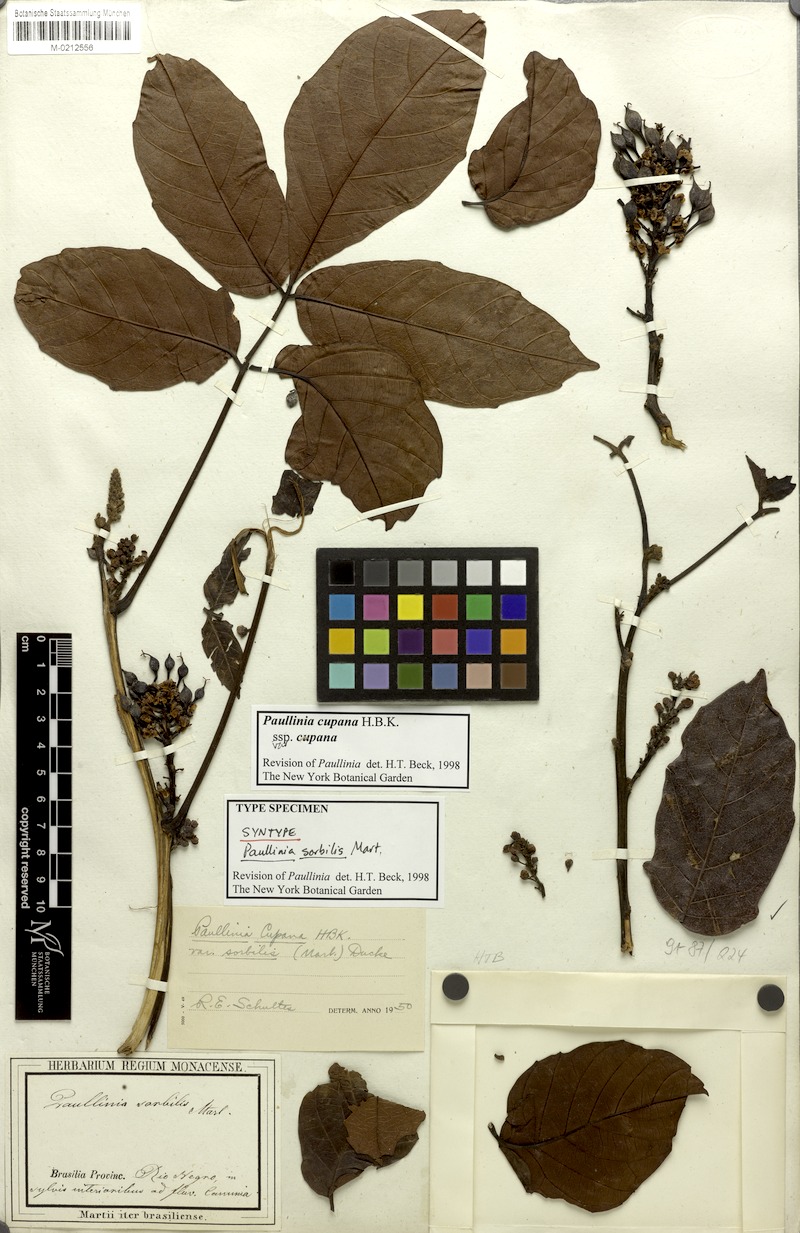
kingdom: Plantae
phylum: Tracheophyta
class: Magnoliopsida
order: Sapindales
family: Sapindaceae
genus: Paullinia
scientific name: Paullinia cupana
